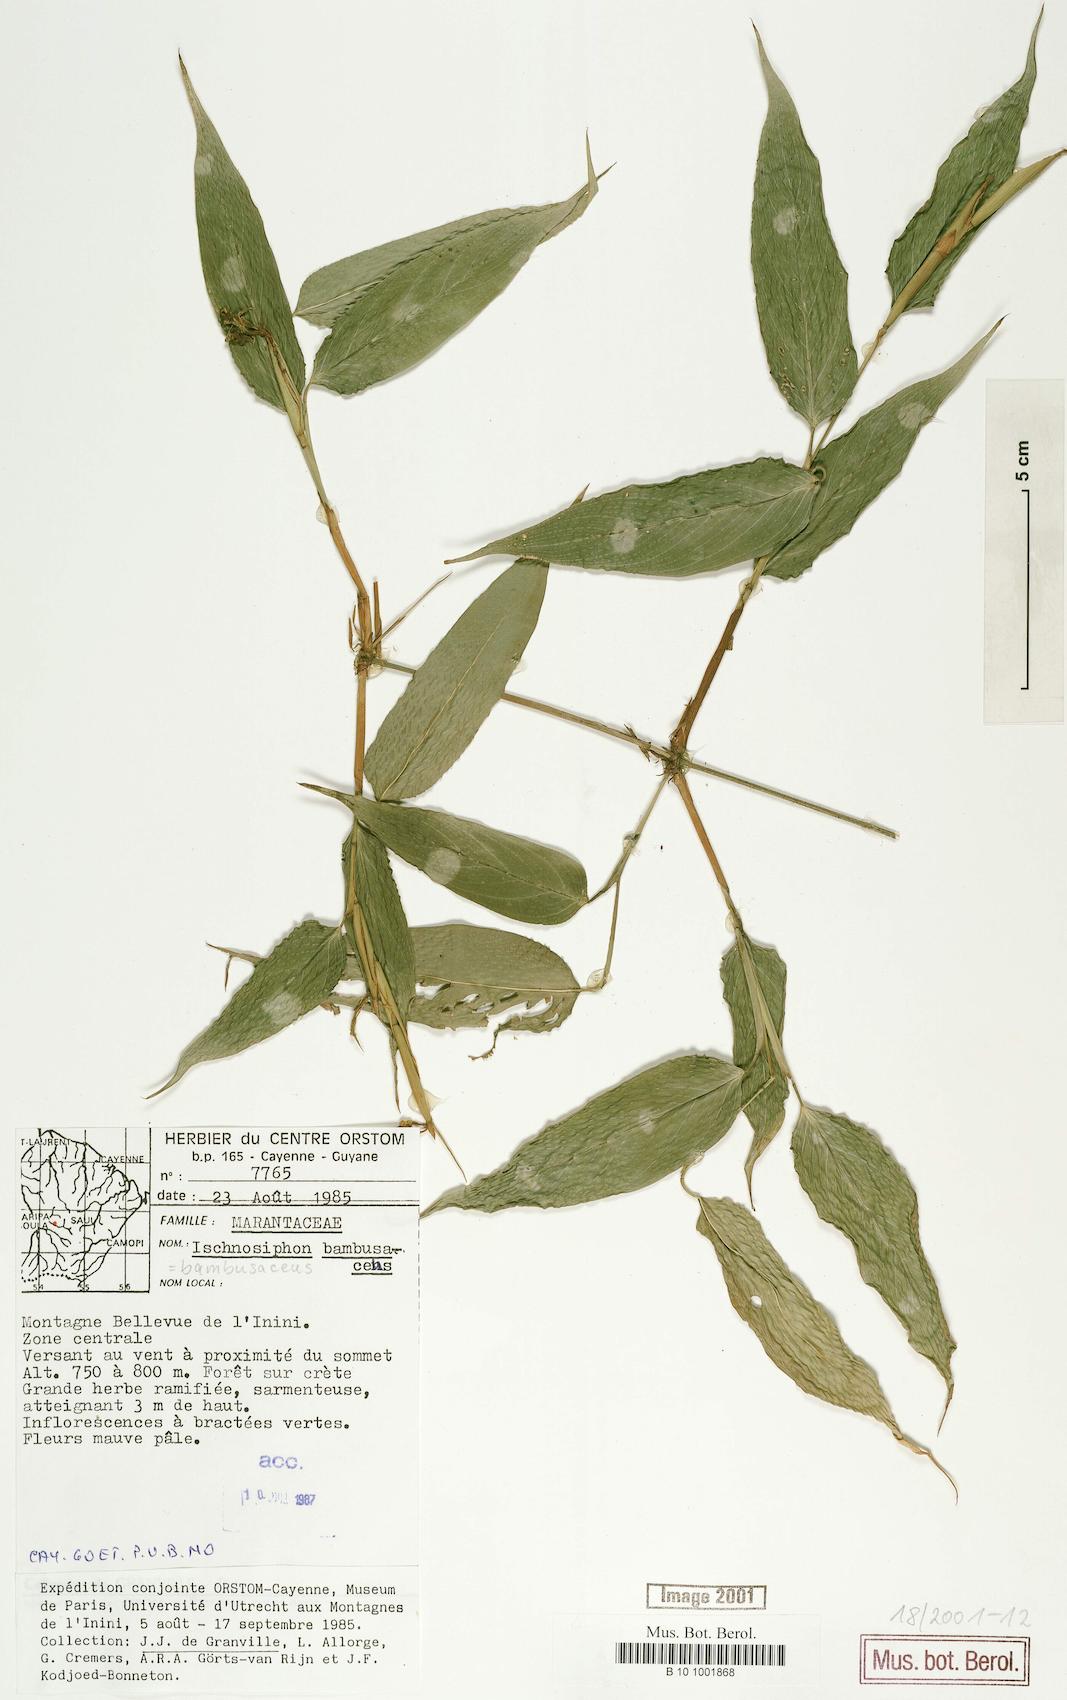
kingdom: Plantae
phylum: Tracheophyta
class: Liliopsida
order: Zingiberales
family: Marantaceae
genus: Ischnosiphon
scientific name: Ischnosiphon gracilis
